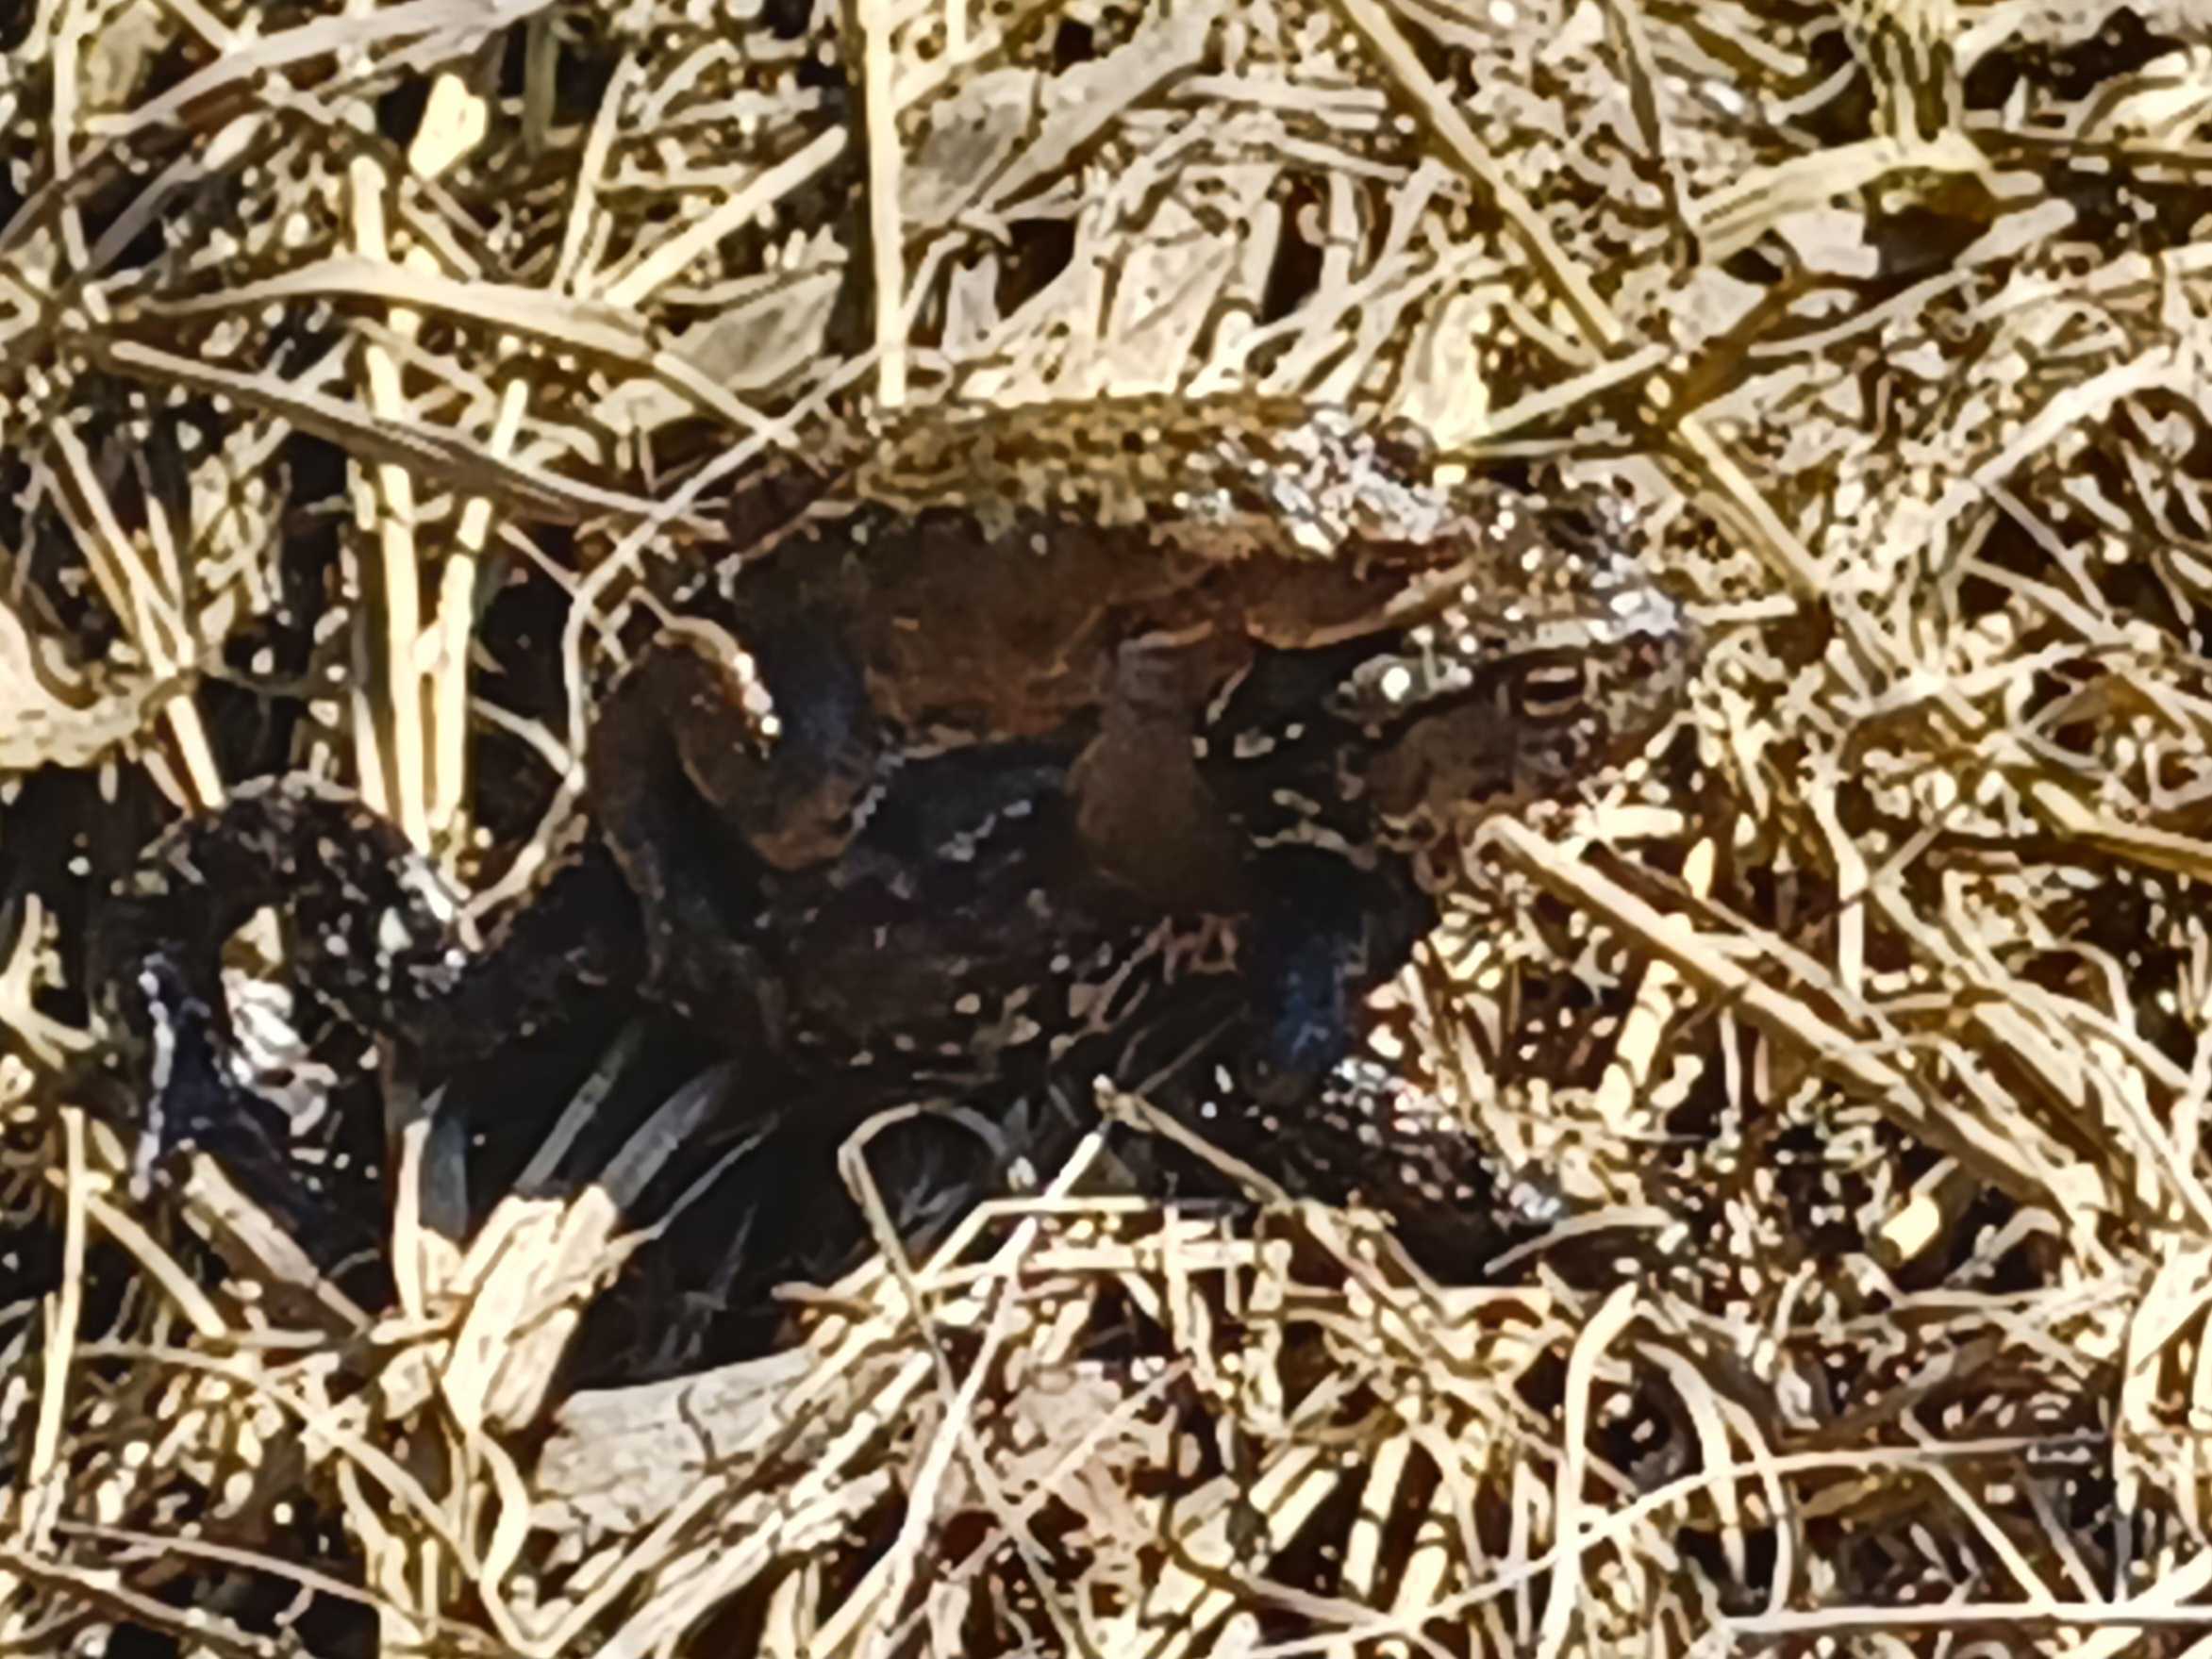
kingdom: Animalia
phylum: Chordata
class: Amphibia
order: Anura
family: Bufonidae
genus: Bufo
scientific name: Bufo bufo
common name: Skrubtudse
